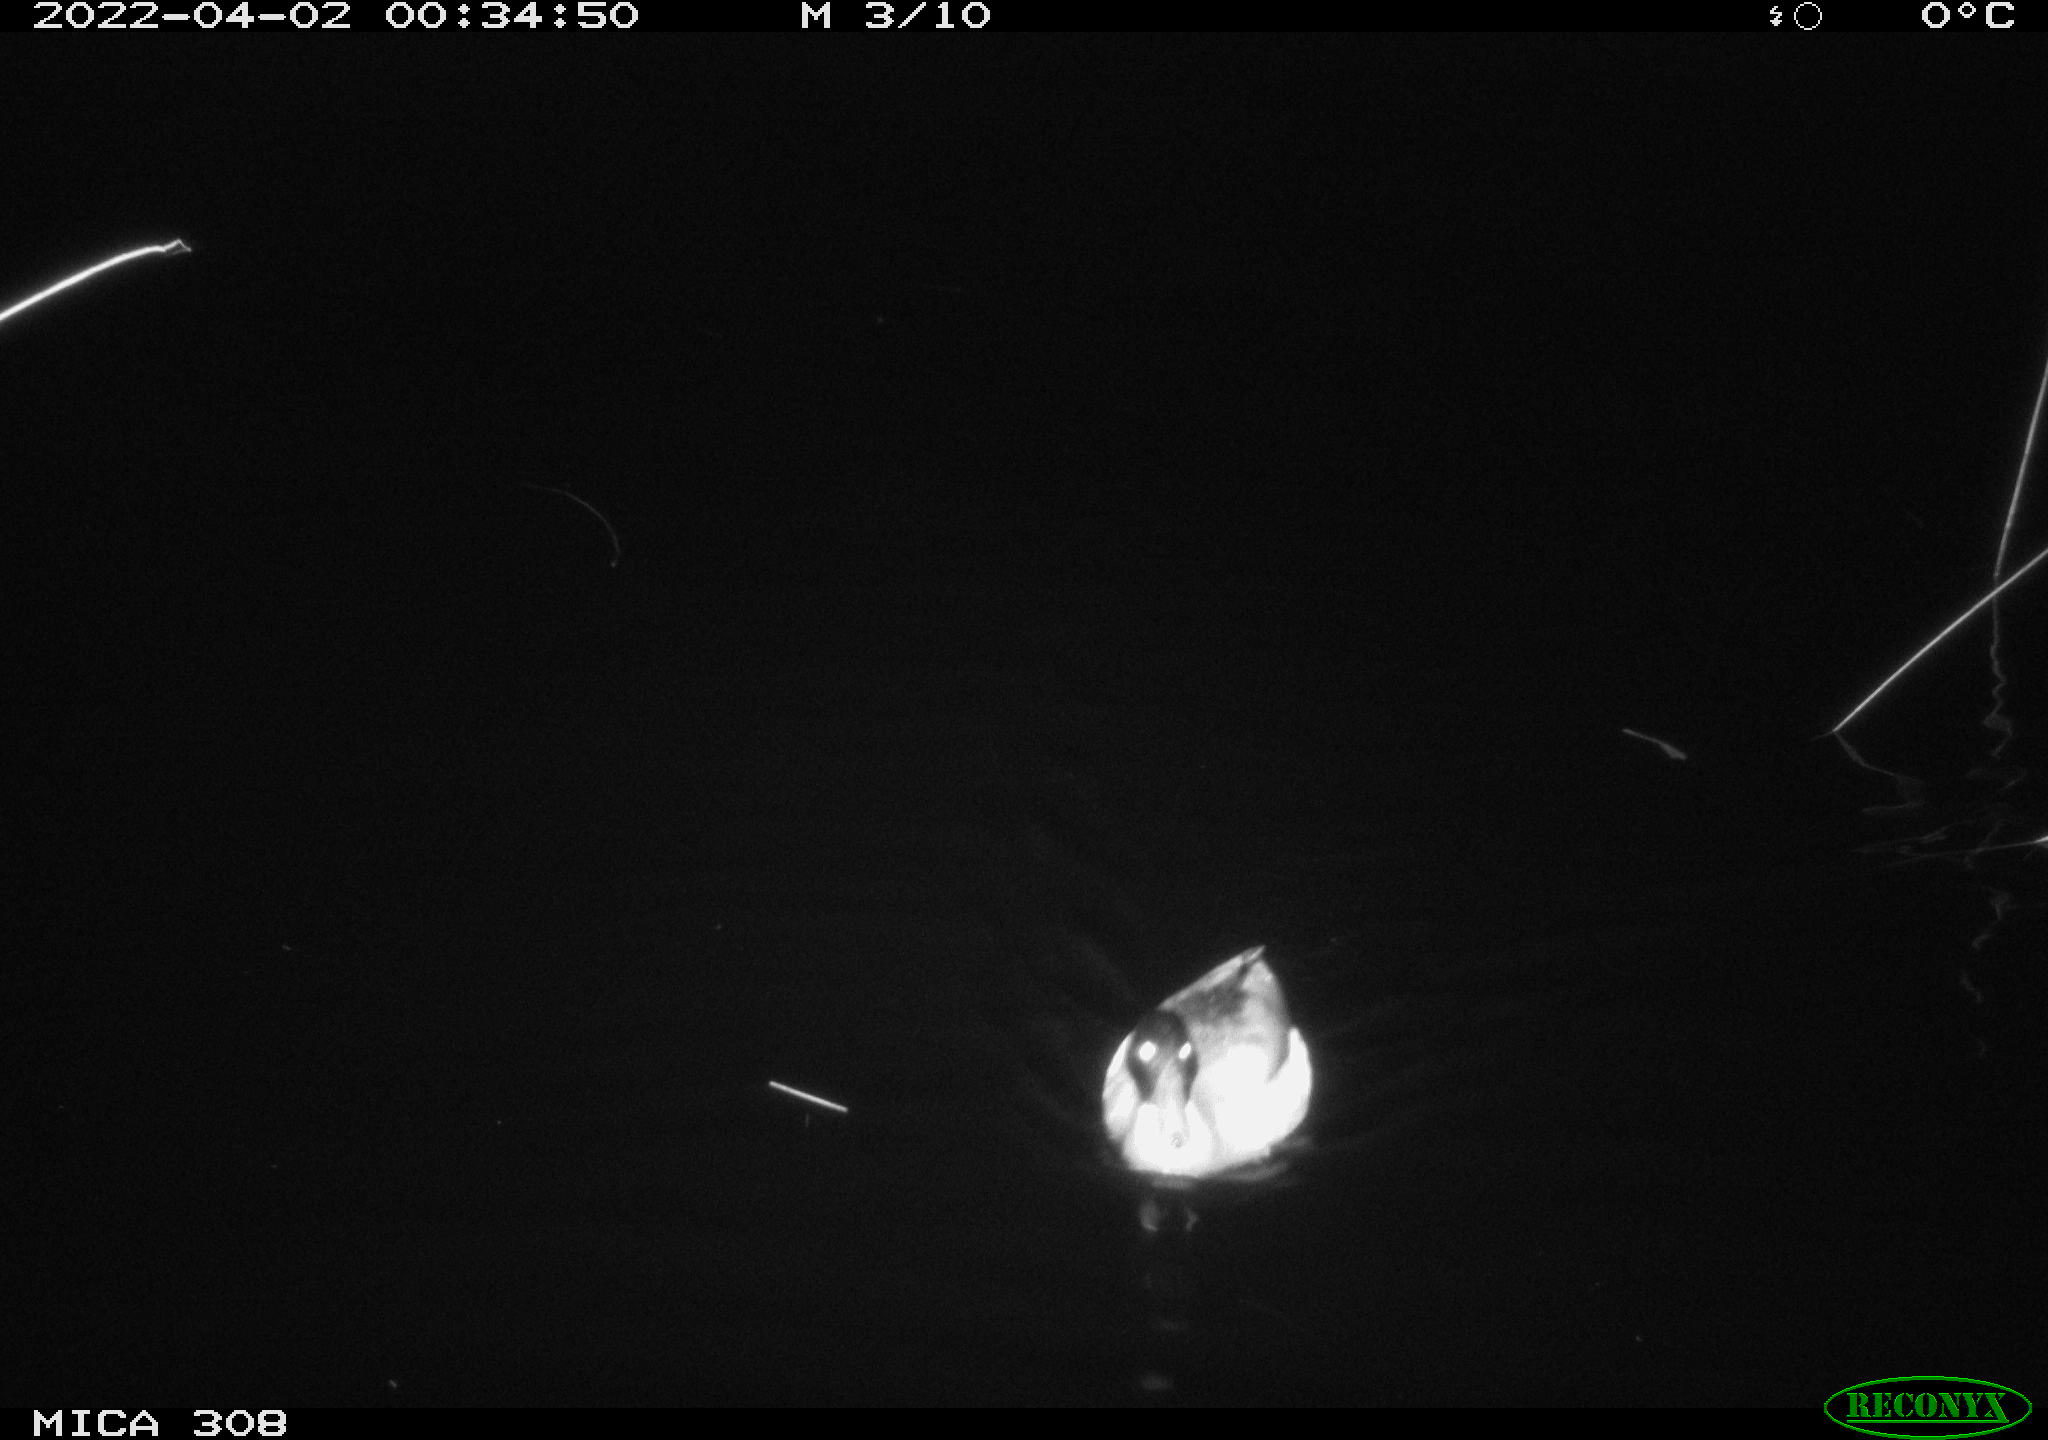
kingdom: Animalia
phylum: Chordata
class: Aves
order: Anseriformes
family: Anatidae
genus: Anas
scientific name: Anas platyrhynchos
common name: Mallard
